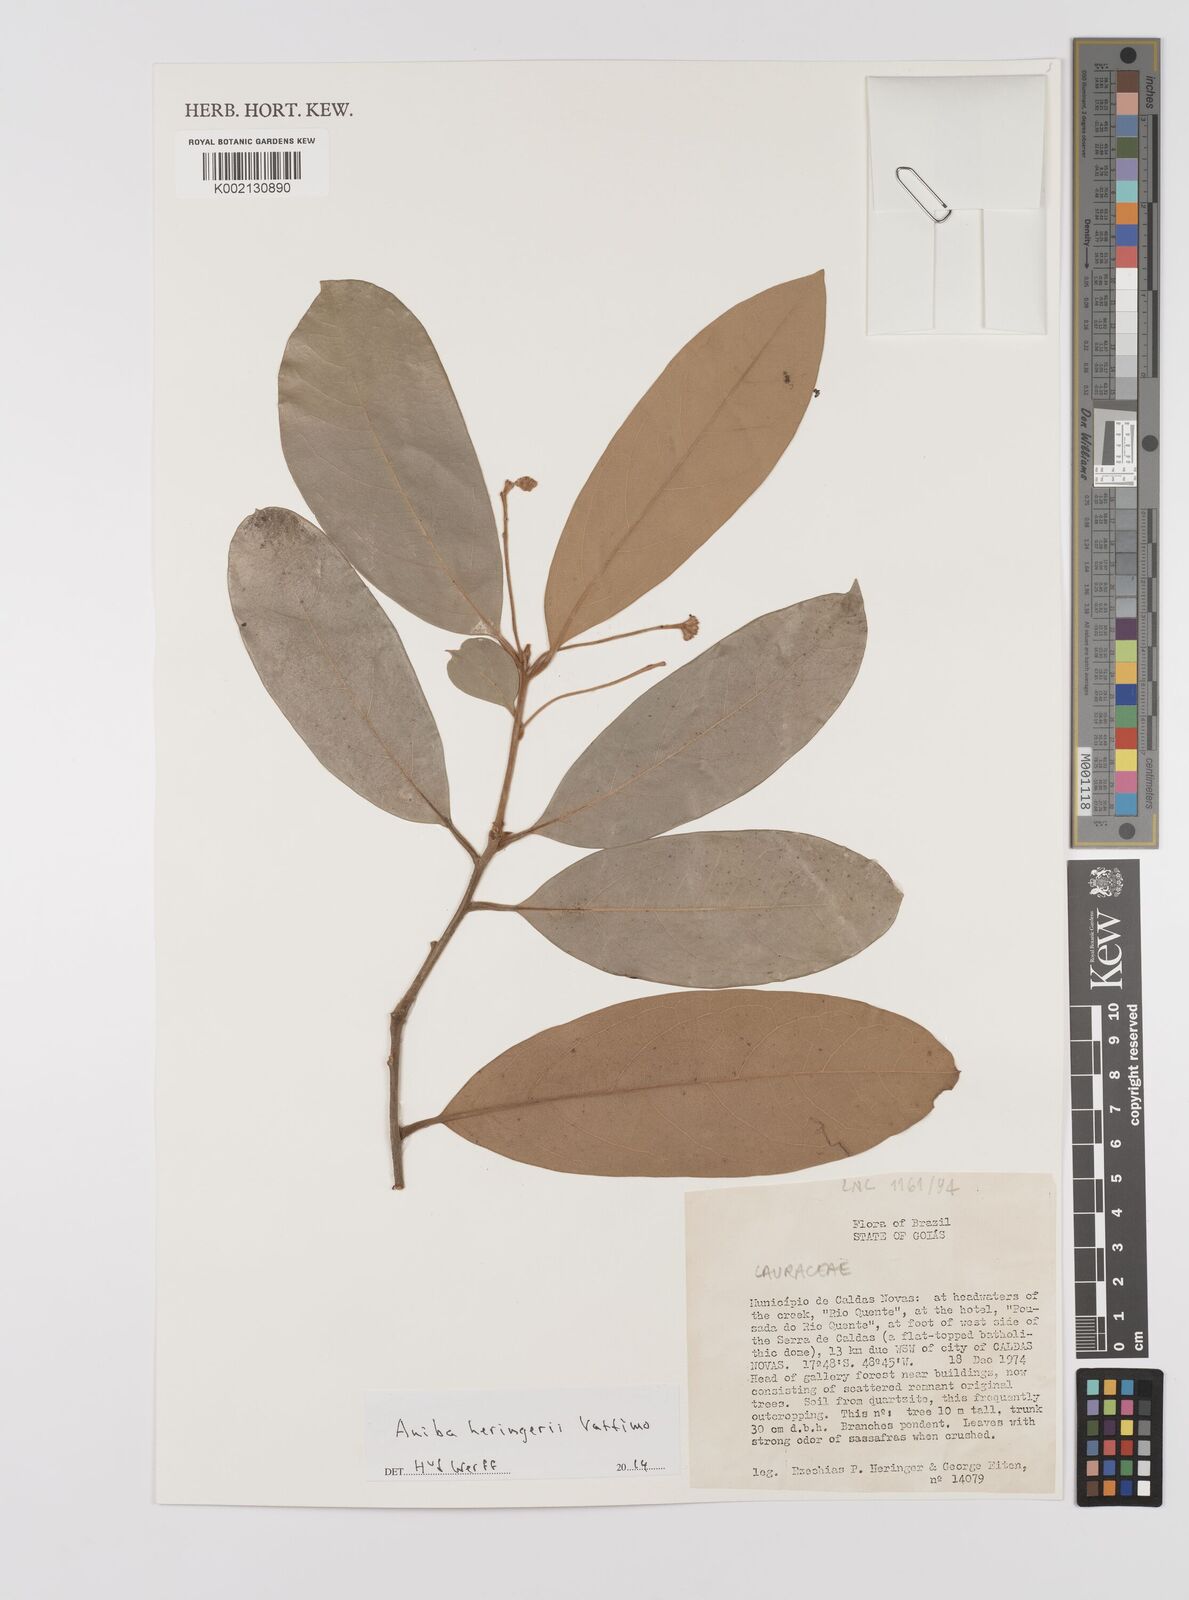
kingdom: Plantae
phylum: Tracheophyta
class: Magnoliopsida
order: Laurales
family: Lauraceae
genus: Aniba
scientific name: Aniba heringeri
